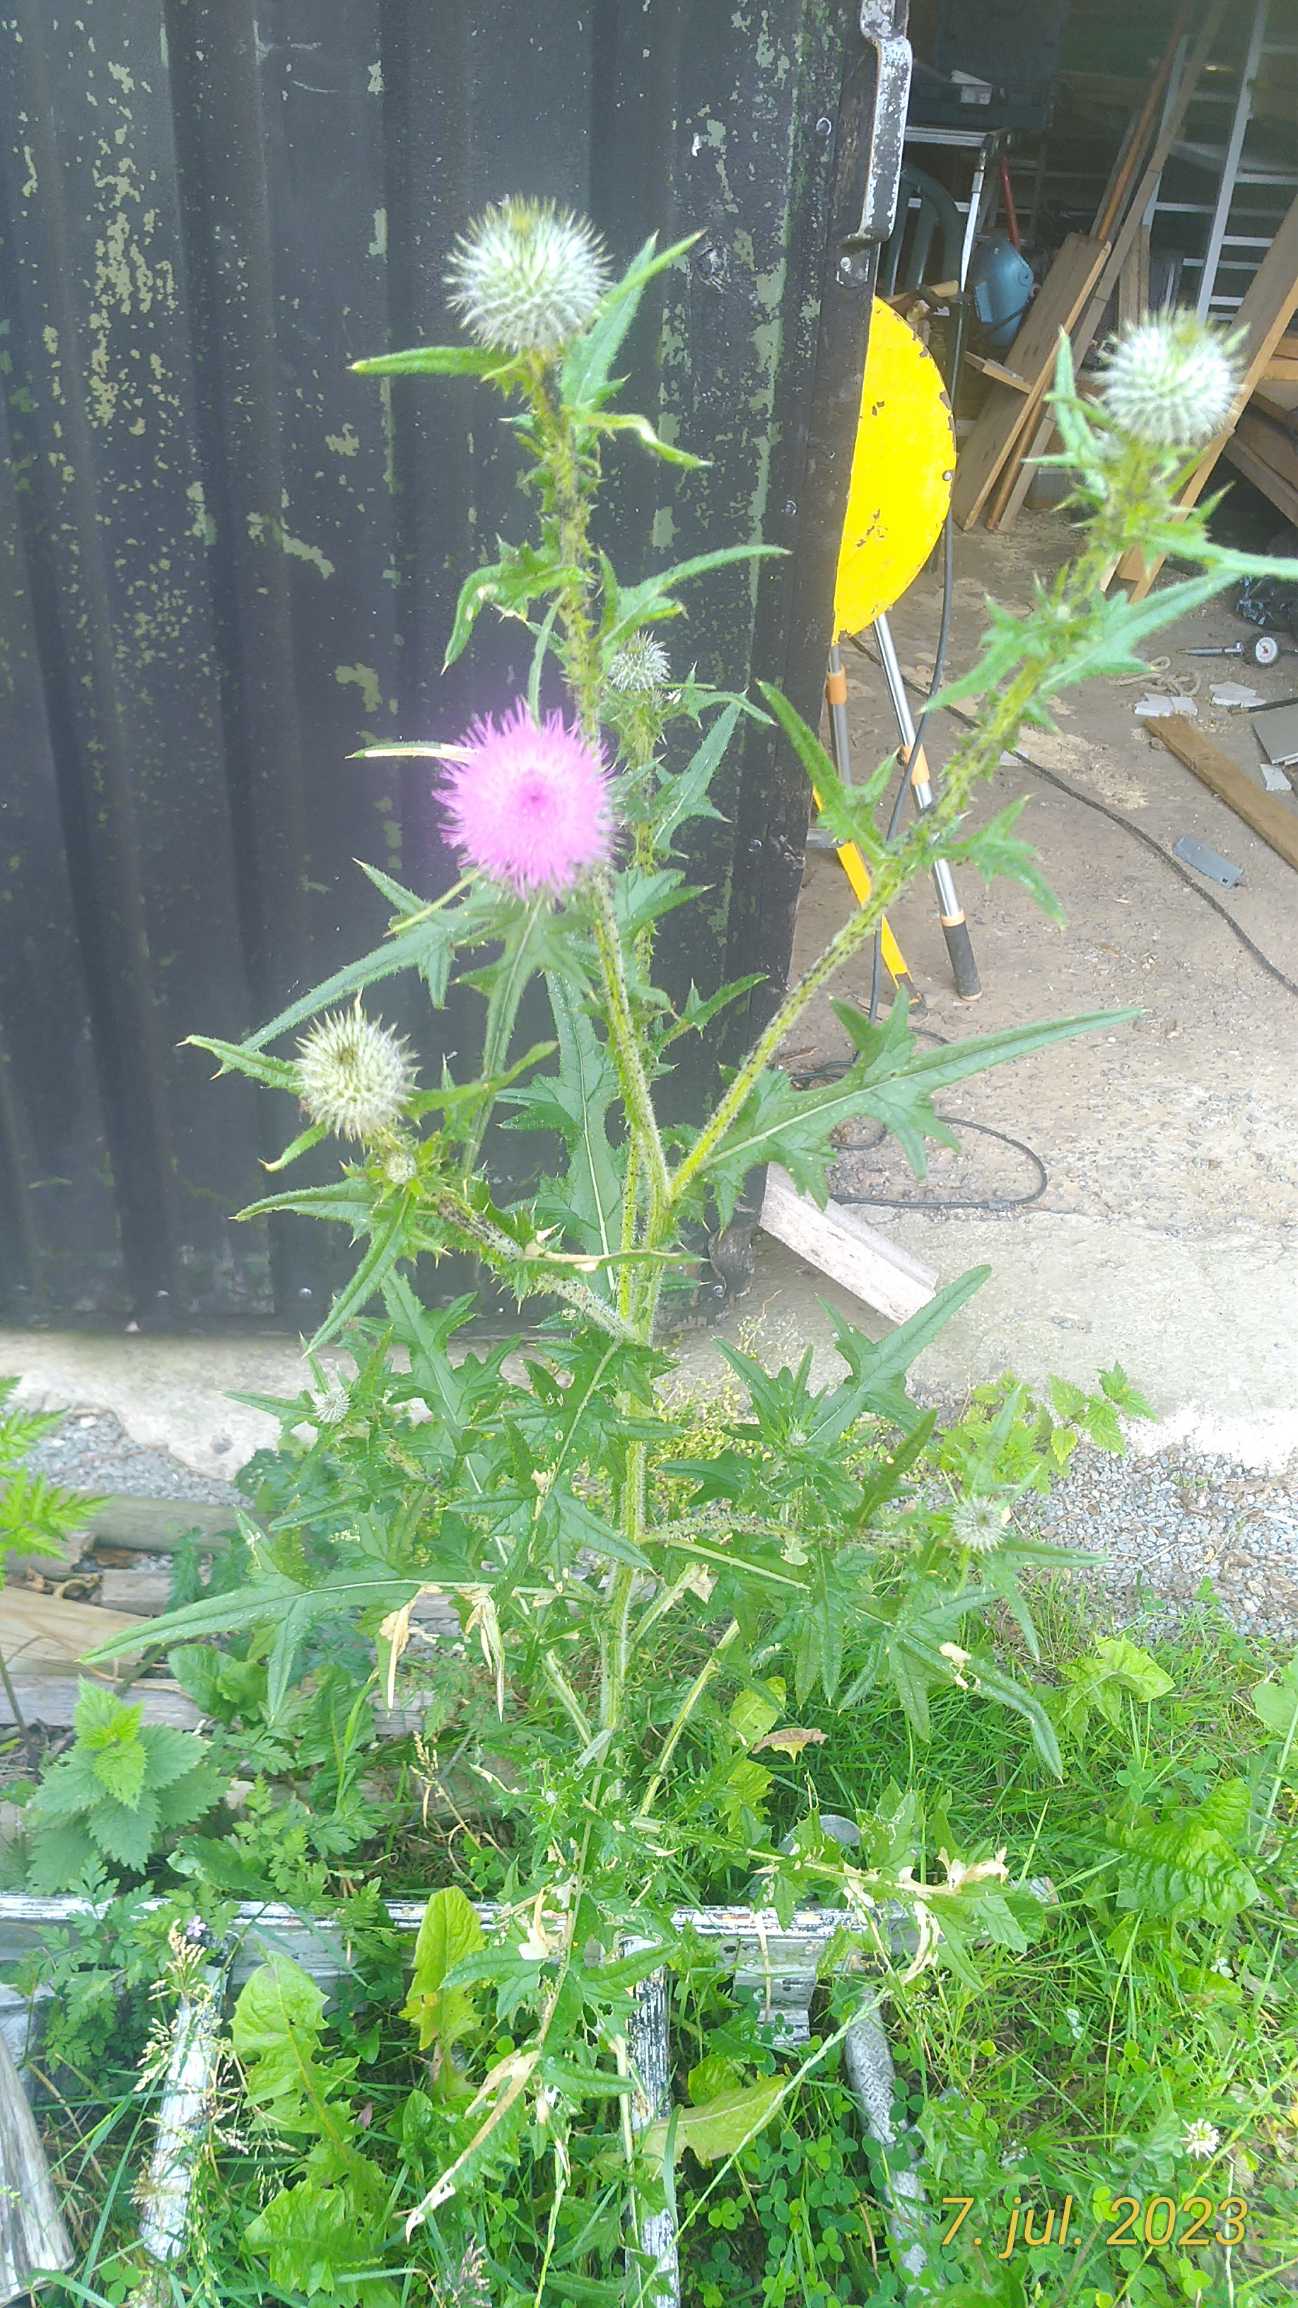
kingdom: Plantae
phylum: Tracheophyta
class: Magnoliopsida
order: Asterales
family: Asteraceae
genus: Cirsium
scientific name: Cirsium vulgare
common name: Horse-tidsel
